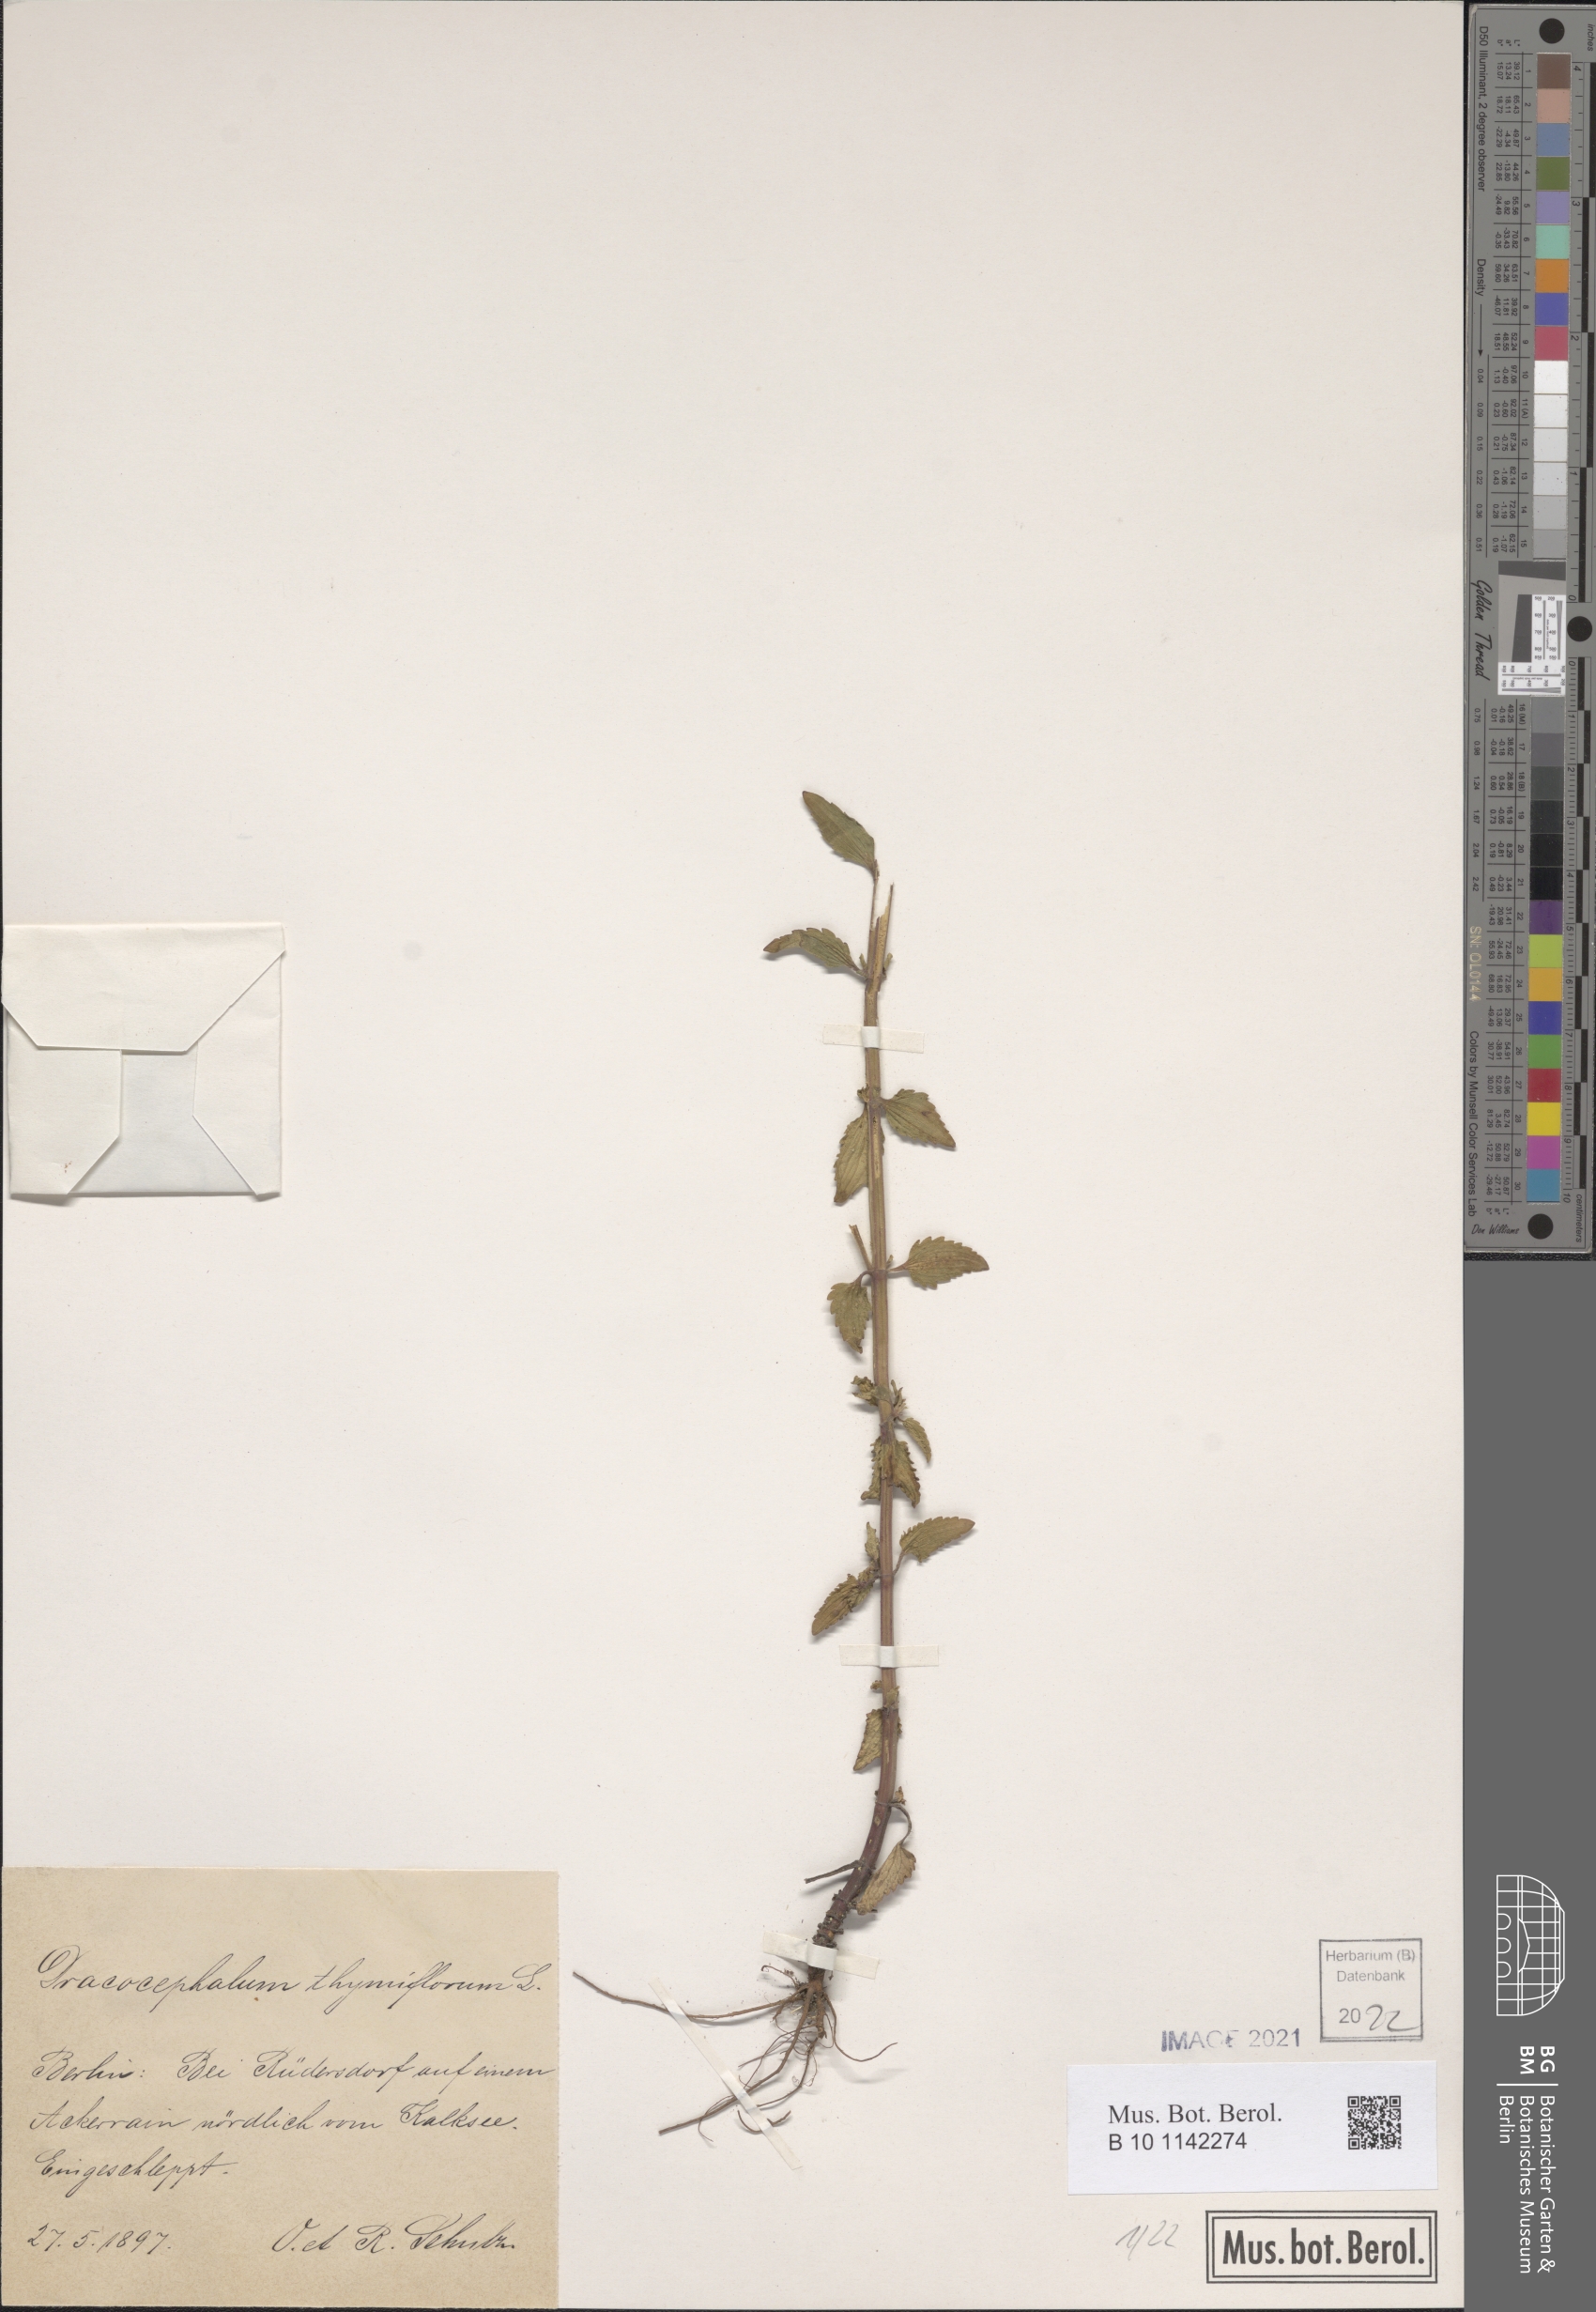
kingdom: Plantae
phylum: Tracheophyta
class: Magnoliopsida
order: Lamiales
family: Lamiaceae
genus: Dracocephalum
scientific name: Dracocephalum thymiflorum
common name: Thymeleaf dragonhead
